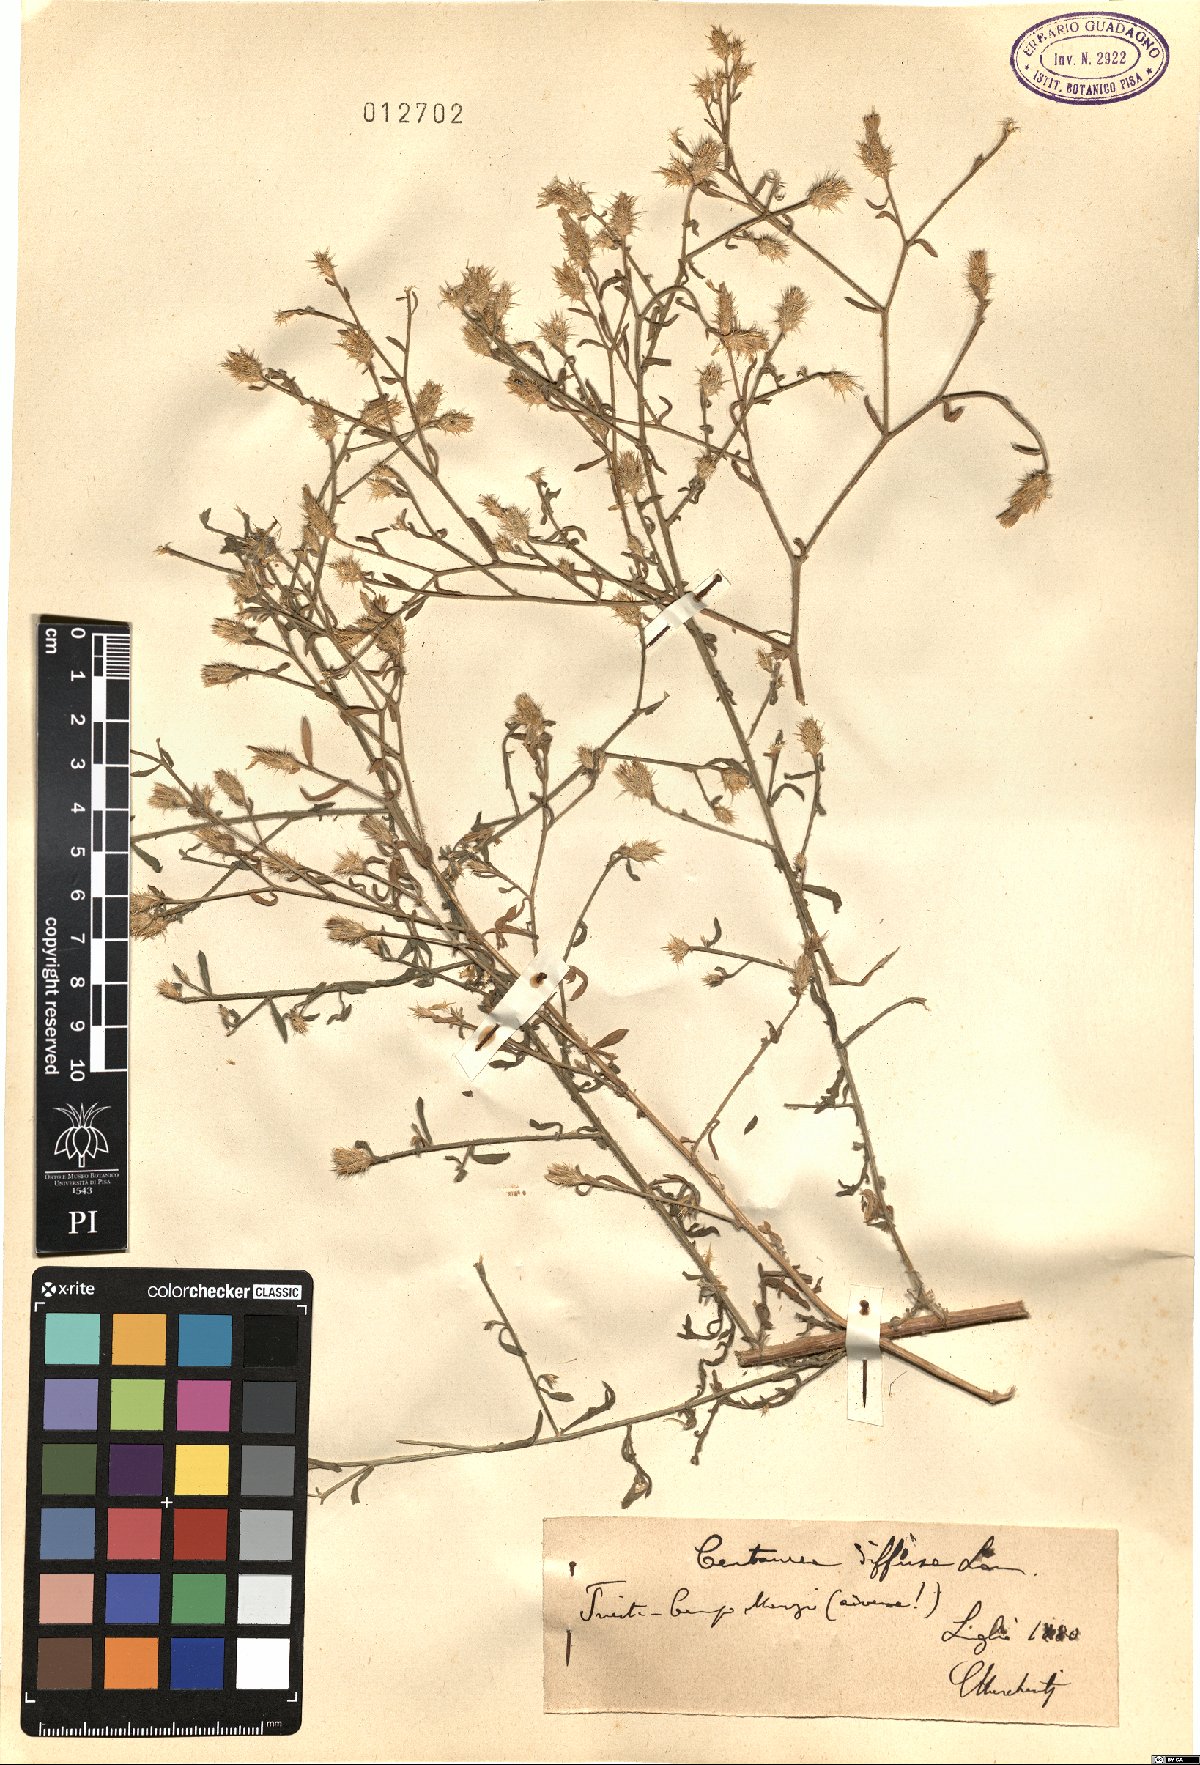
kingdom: Plantae
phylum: Tracheophyta
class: Magnoliopsida
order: Asterales
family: Asteraceae
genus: Centaurea
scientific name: Centaurea diffusa
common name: Diffuse knapweed
